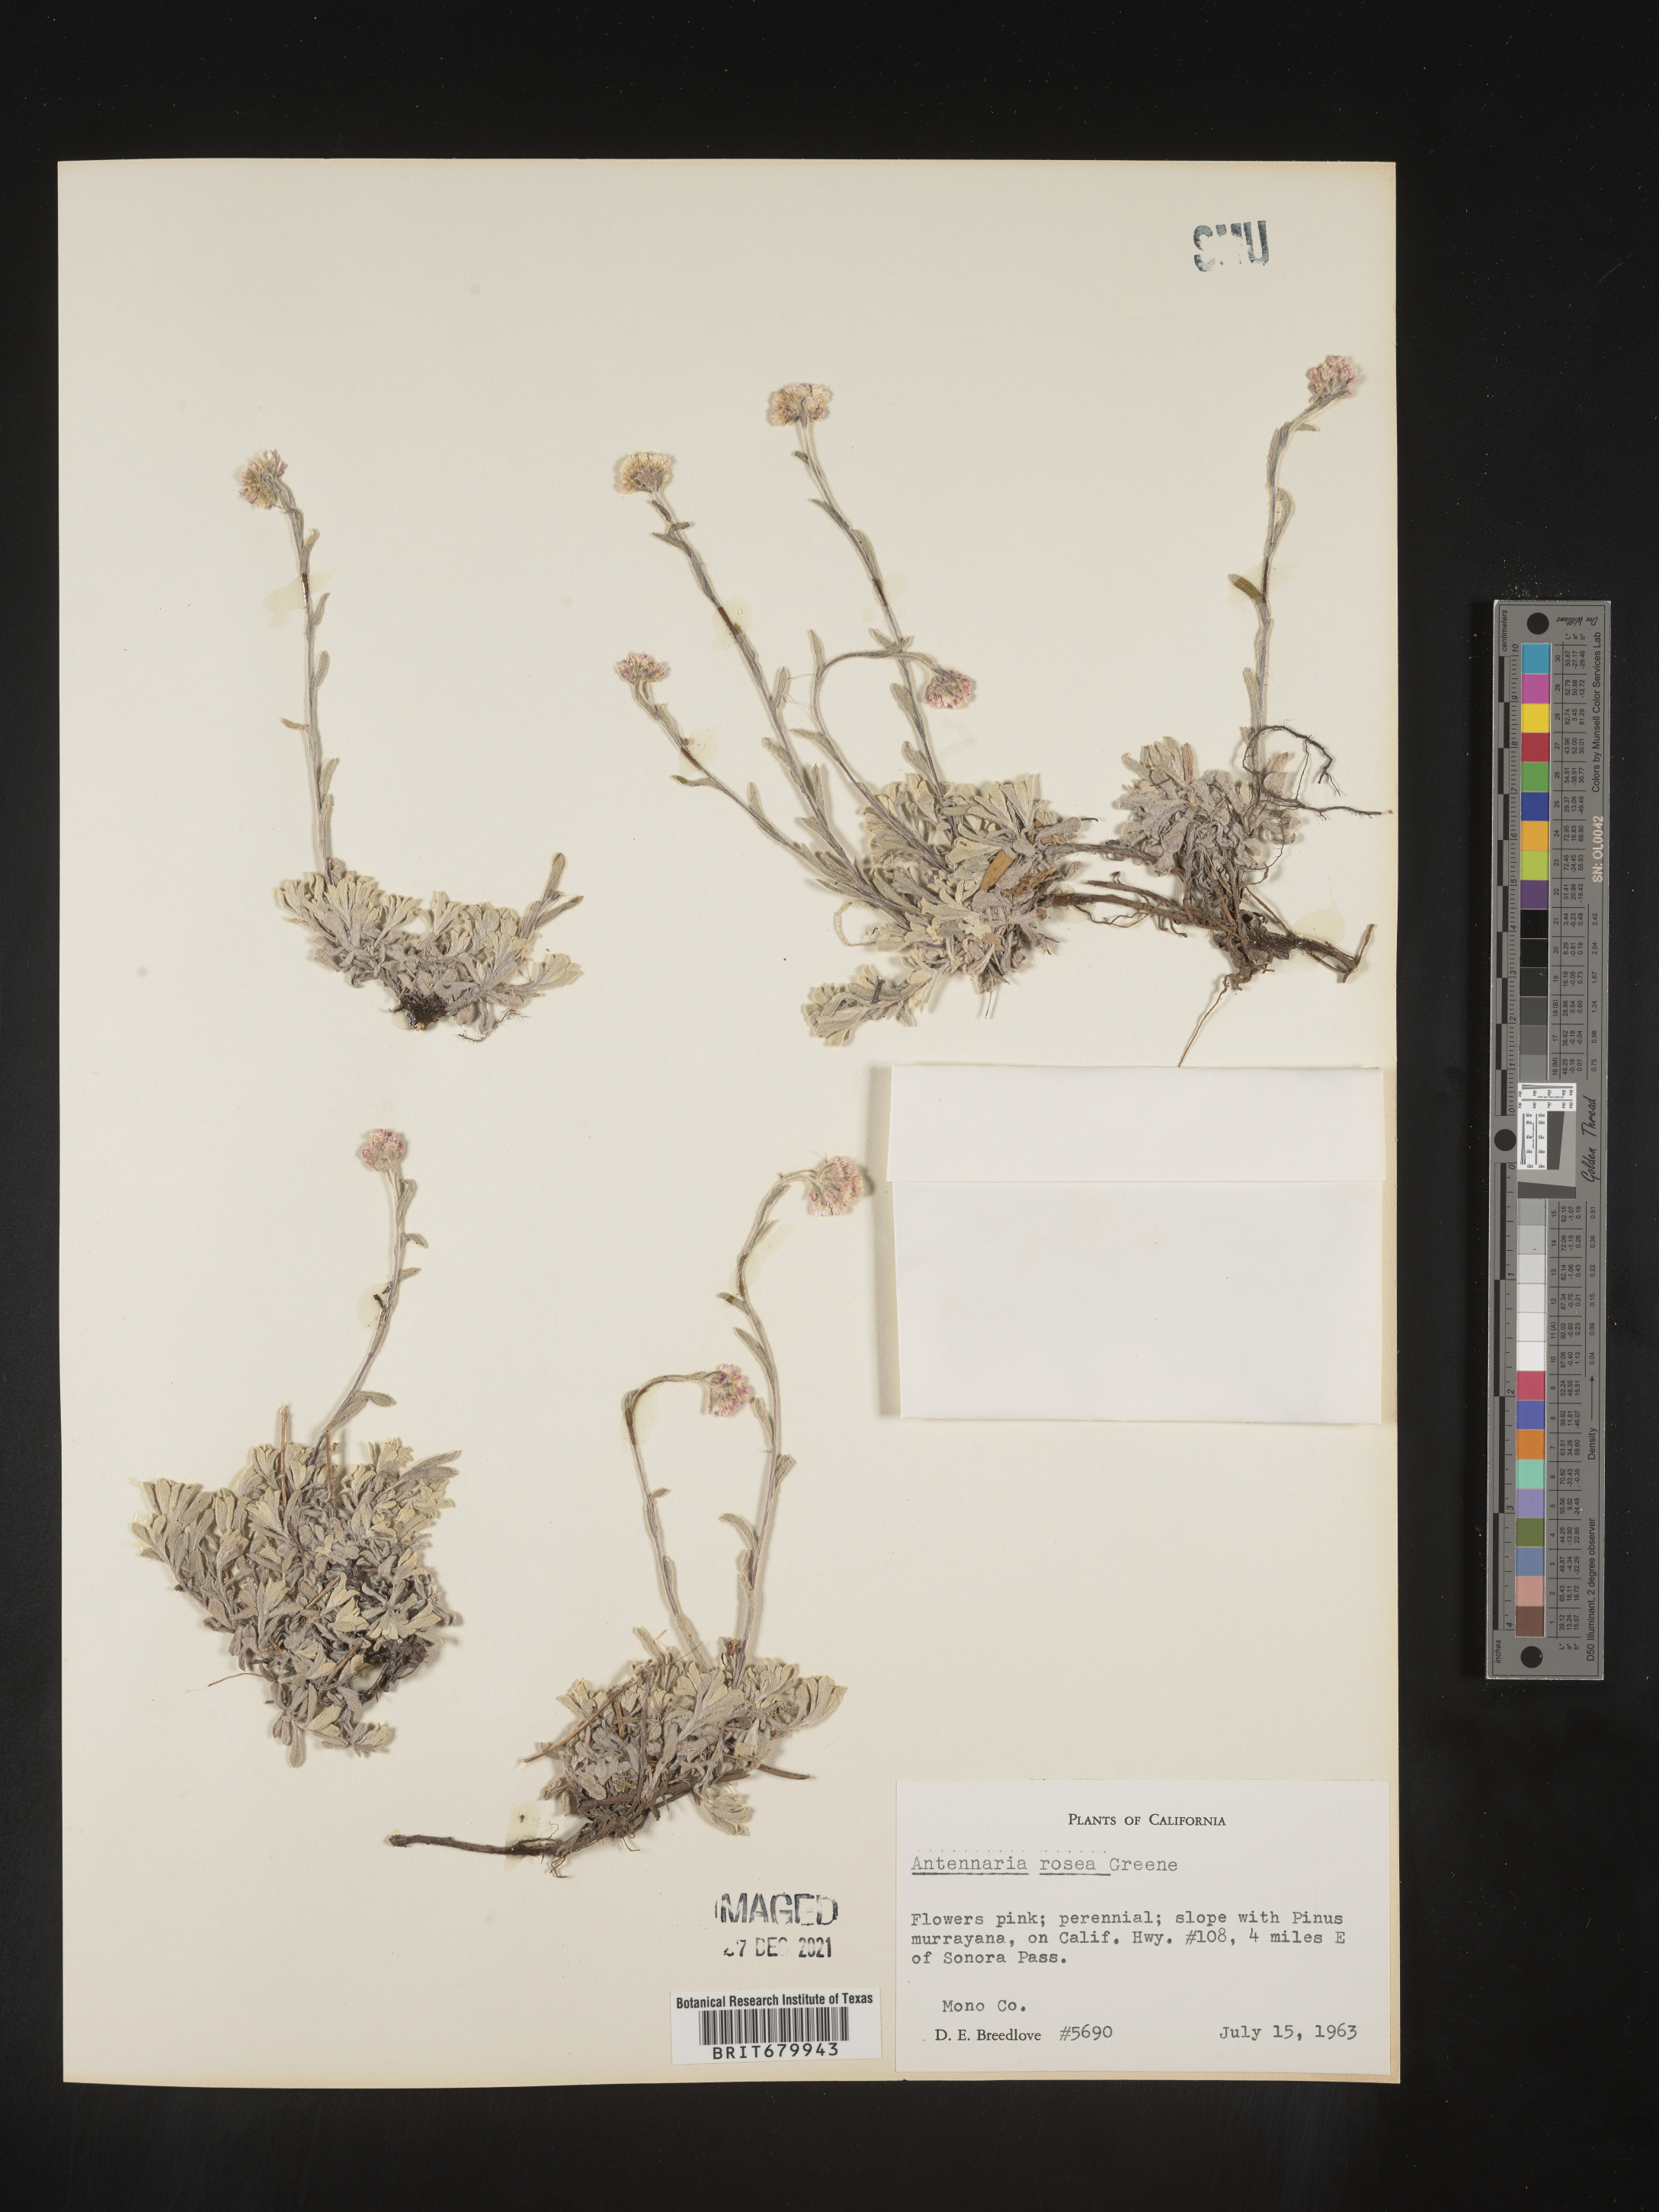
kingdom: Plantae
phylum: Tracheophyta
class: Magnoliopsida
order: Asterales
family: Asteraceae
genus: Antennaria
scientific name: Antennaria rosea
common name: Rosy pussytoes
